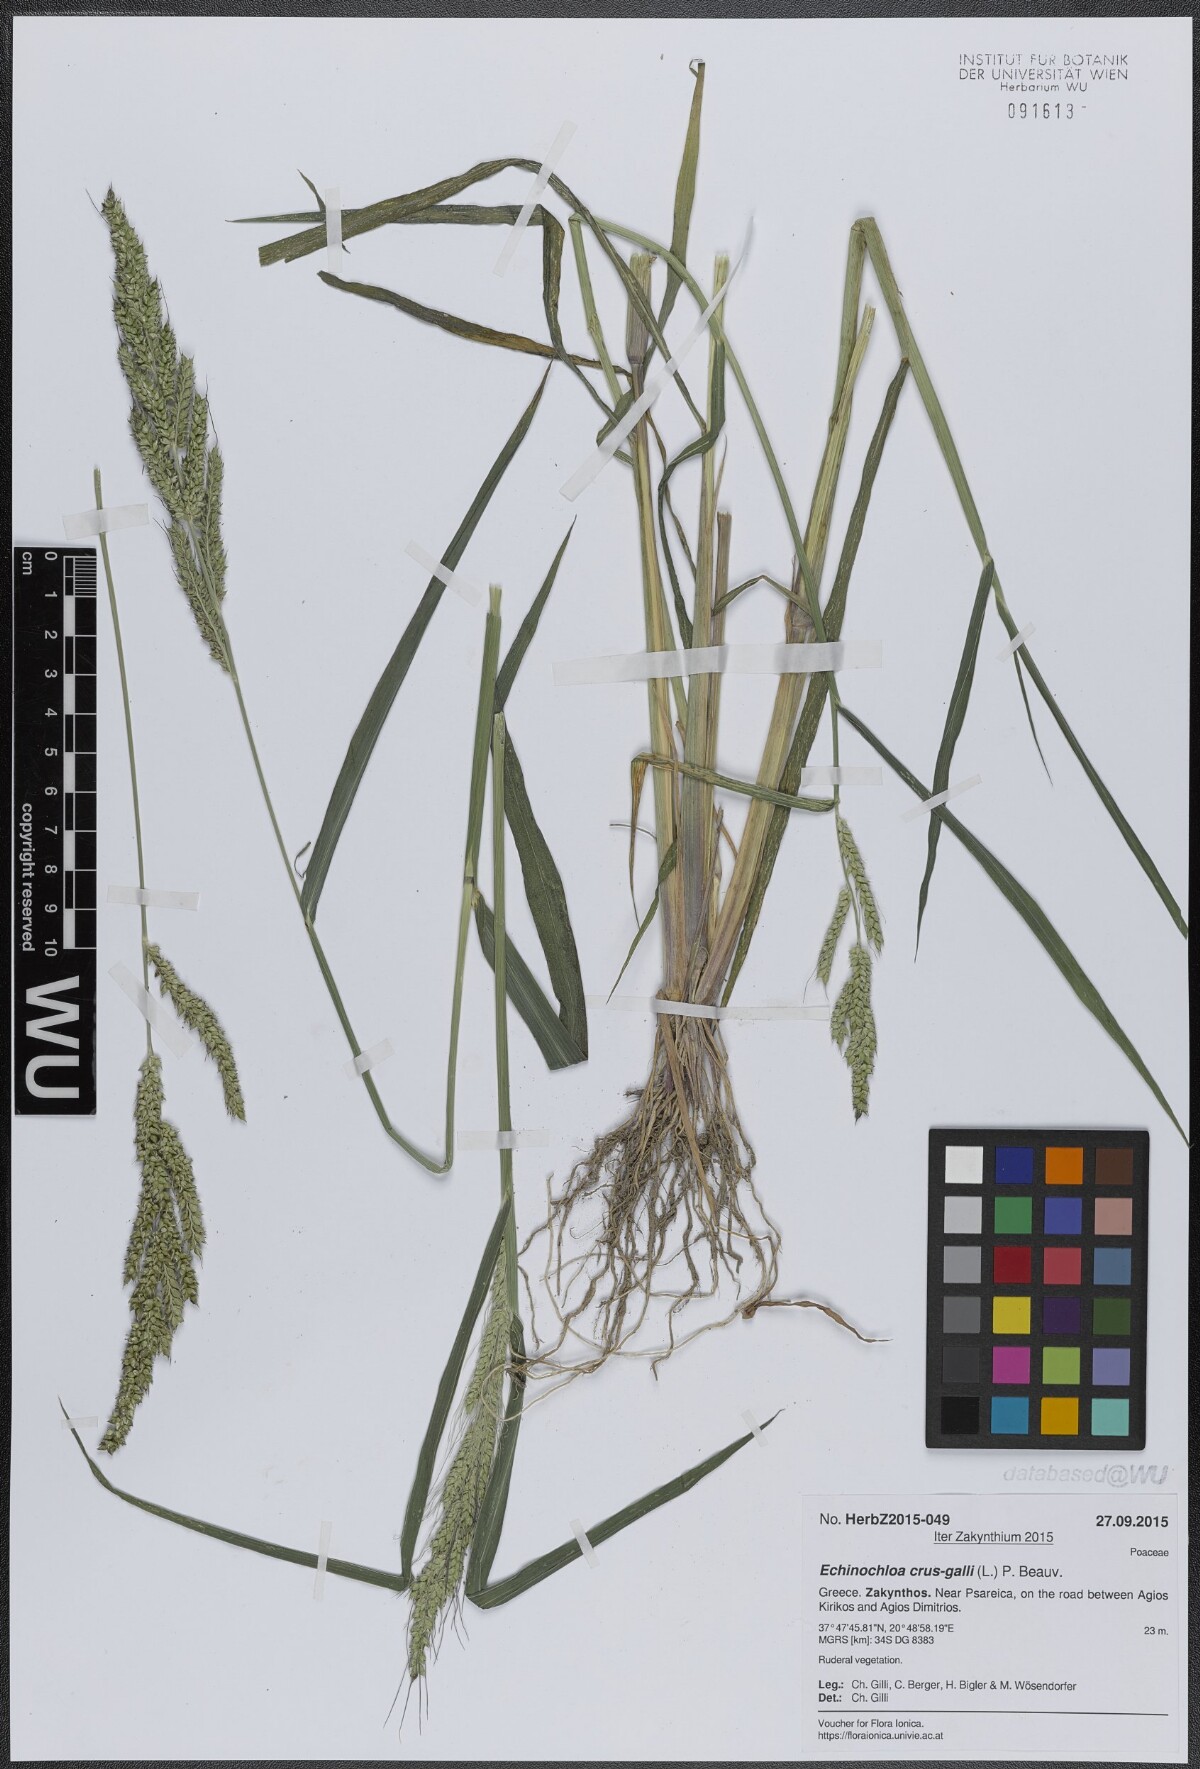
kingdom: Plantae
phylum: Tracheophyta
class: Liliopsida
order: Poales
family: Poaceae
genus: Echinochloa
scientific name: Echinochloa crus-galli
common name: Cockspur
